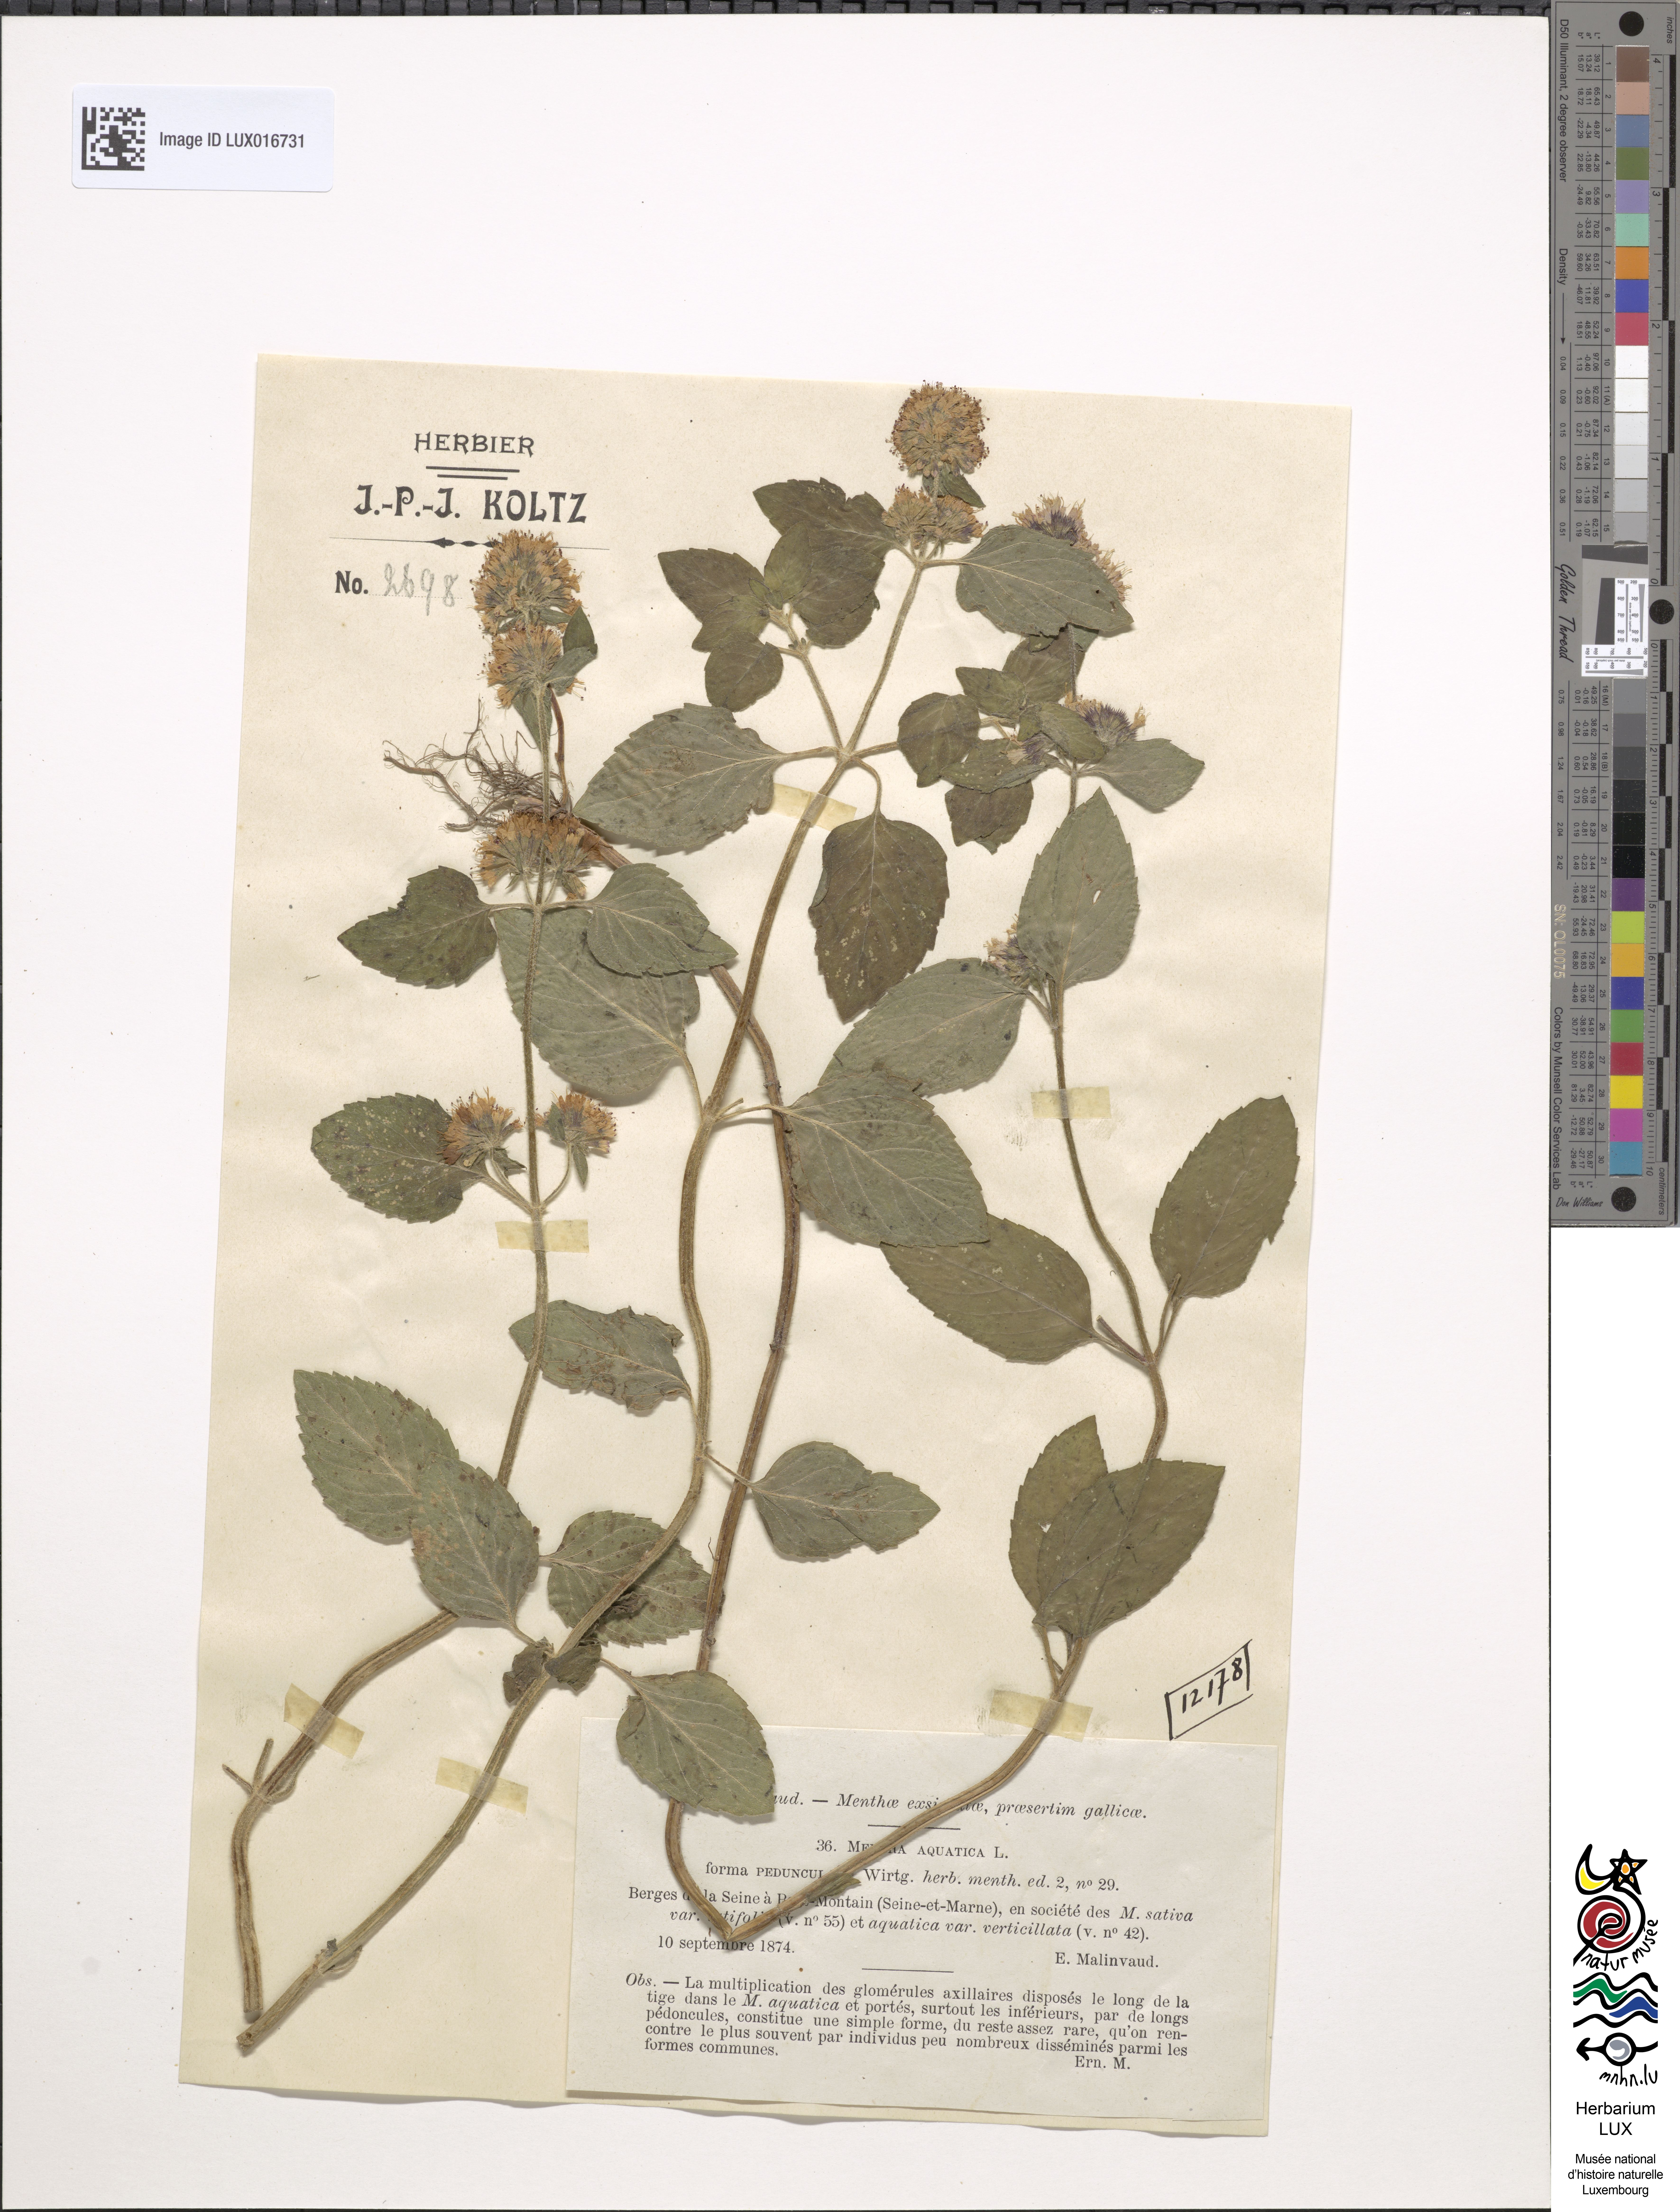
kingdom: Plantae
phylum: Tracheophyta
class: Magnoliopsida
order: Lamiales
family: Lamiaceae
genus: Mentha
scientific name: Mentha aquatica
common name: Water mint
